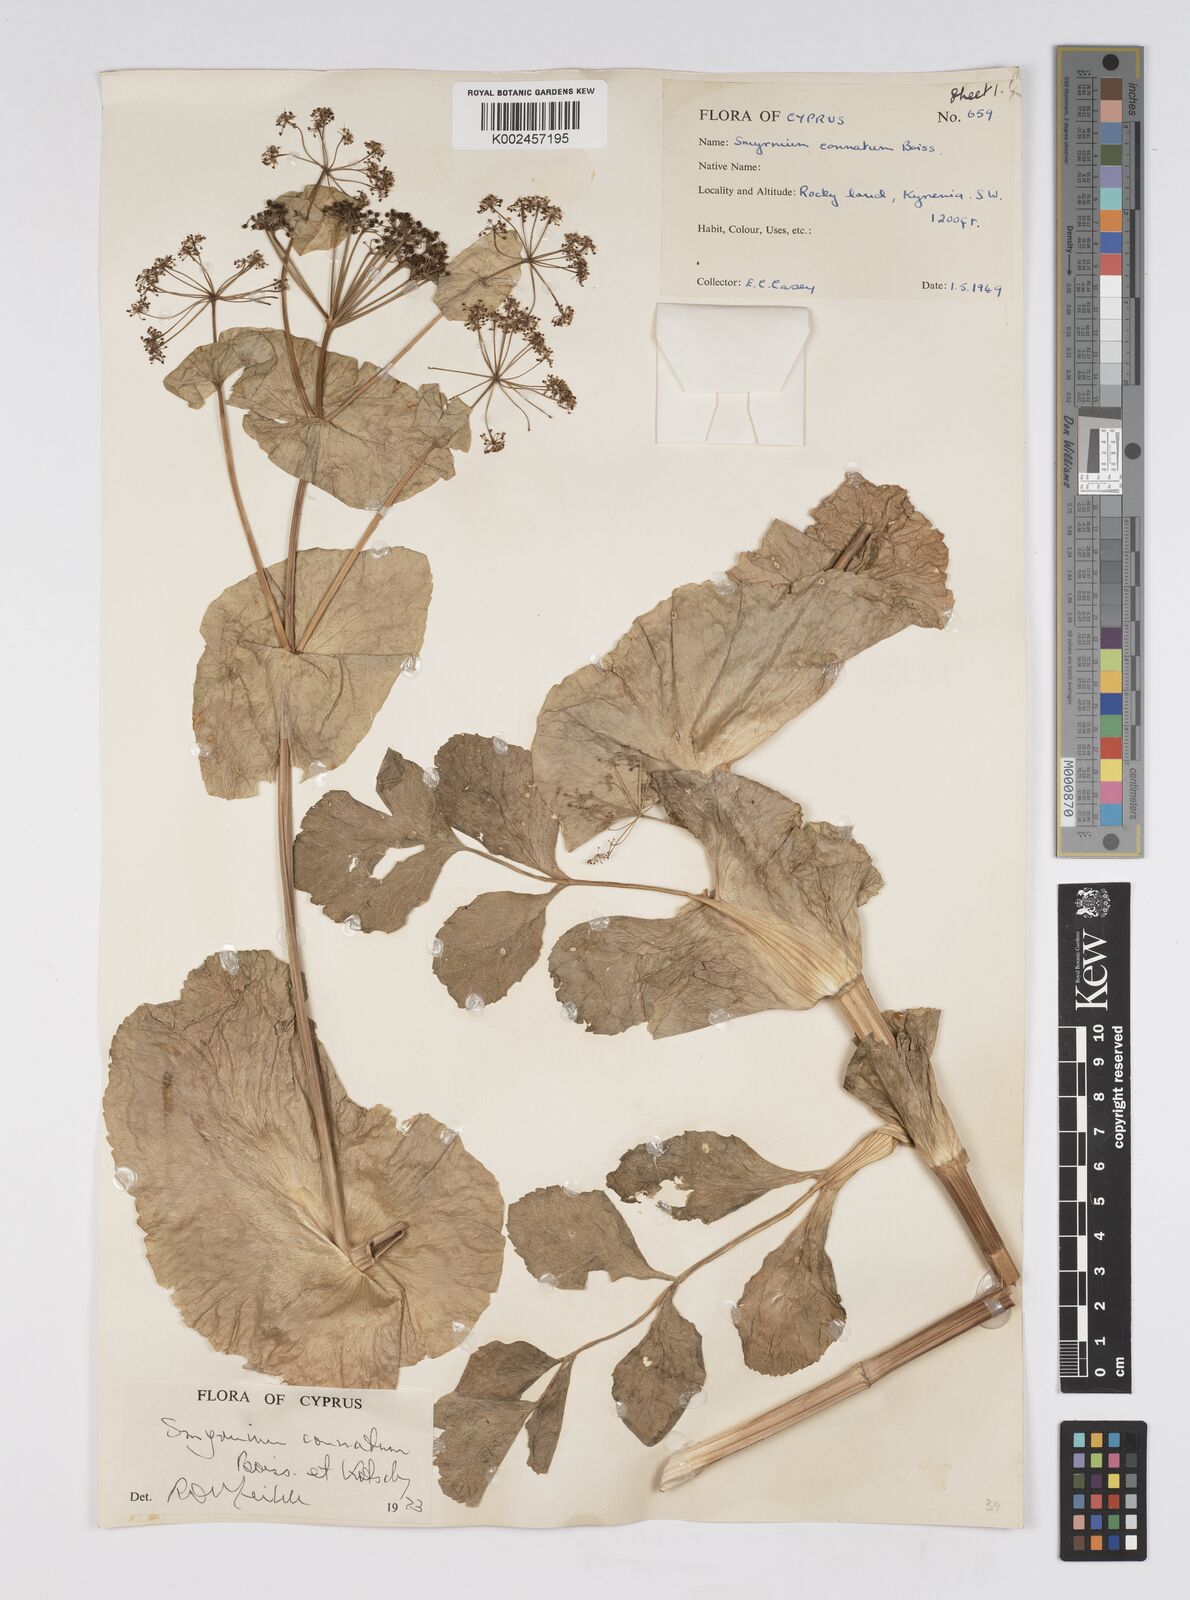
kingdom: Plantae
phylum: Tracheophyta
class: Magnoliopsida
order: Apiales
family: Apiaceae
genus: Smyrnium
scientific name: Smyrnium connatum
